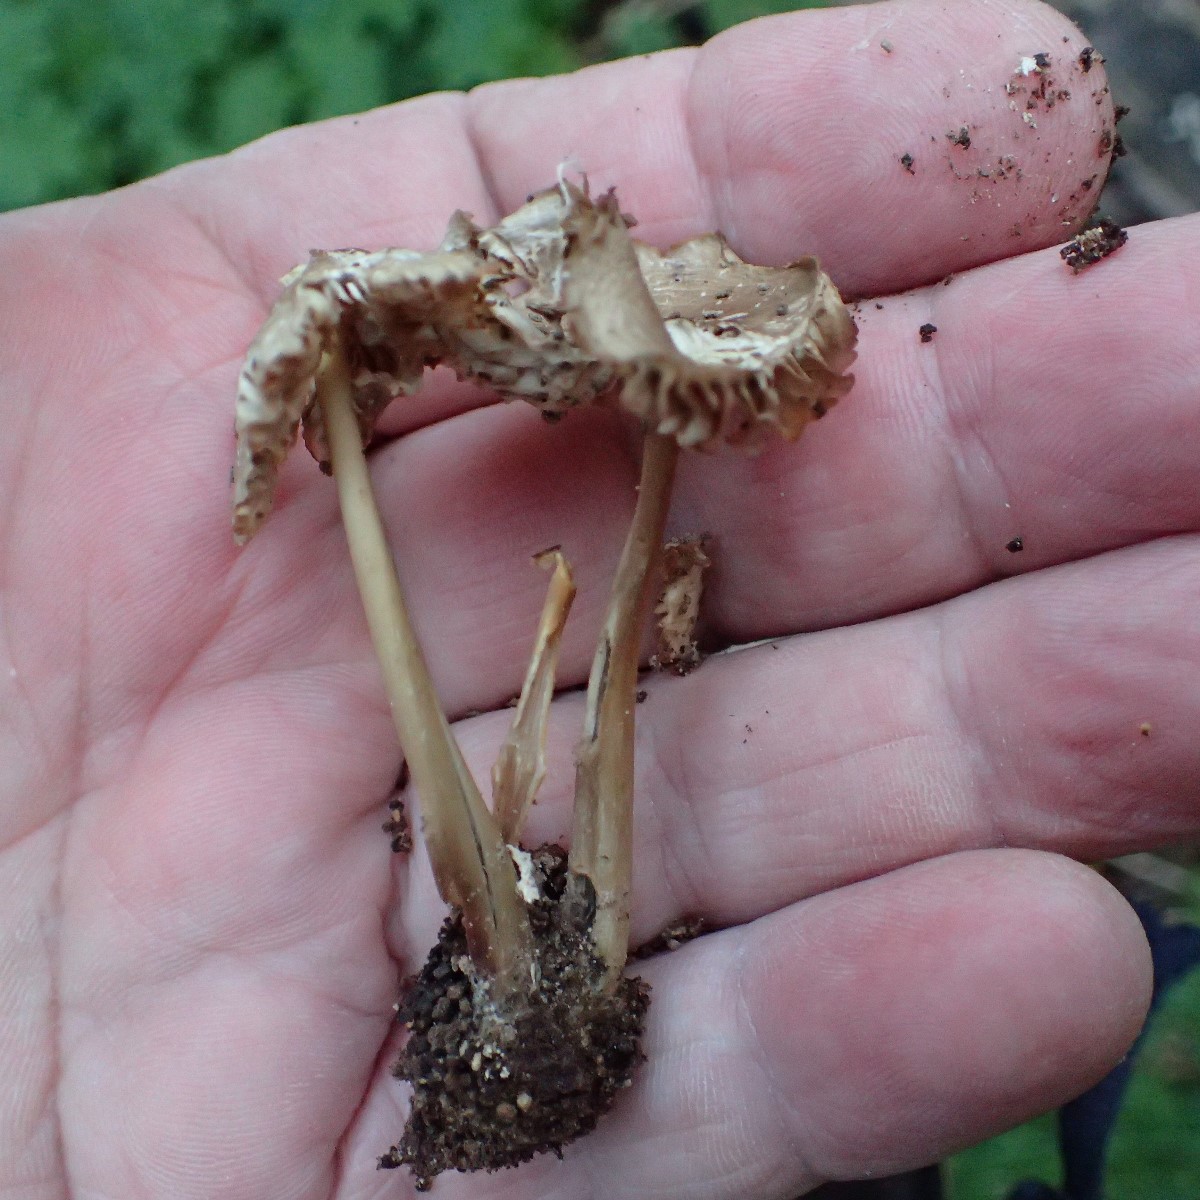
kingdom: Fungi
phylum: Basidiomycota
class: Agaricomycetes
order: Agaricales
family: Mycenaceae
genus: Mycena
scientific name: Mycena
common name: huesvamp
